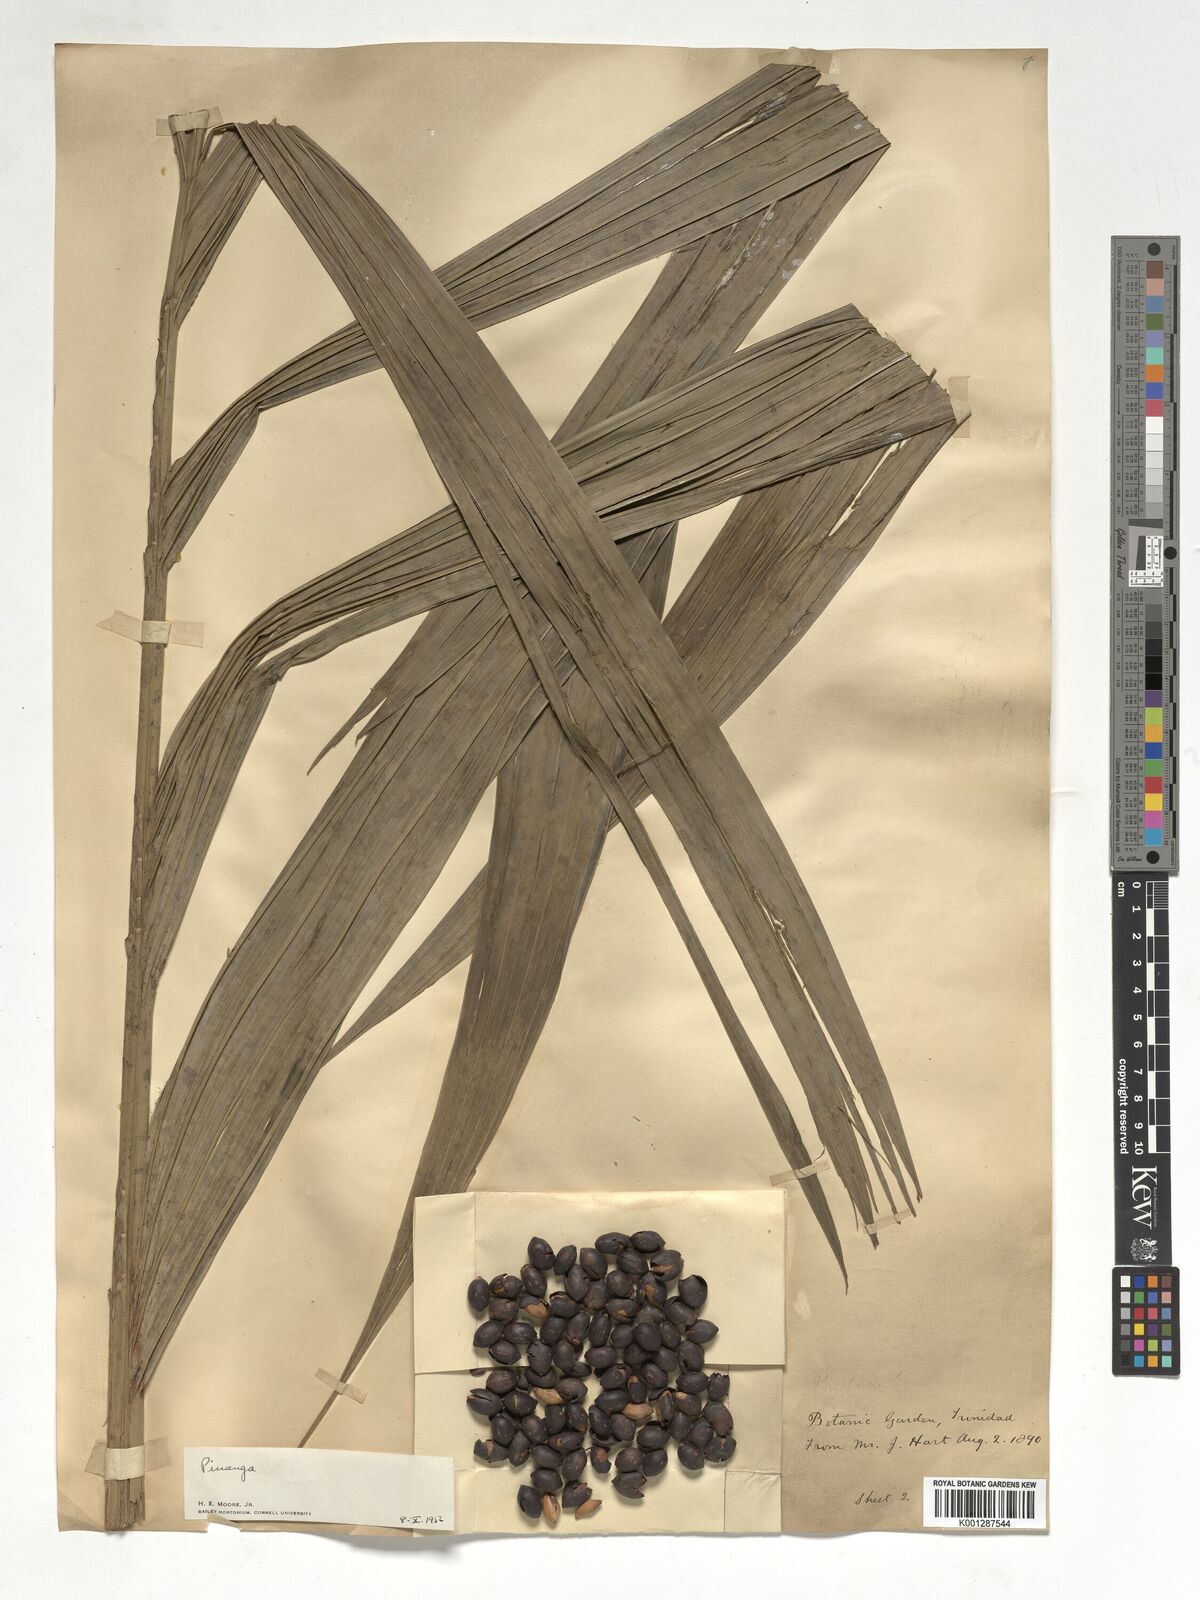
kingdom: Plantae
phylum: Tracheophyta
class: Liliopsida
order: Arecales
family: Arecaceae
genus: Pinanga
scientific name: Pinanga
